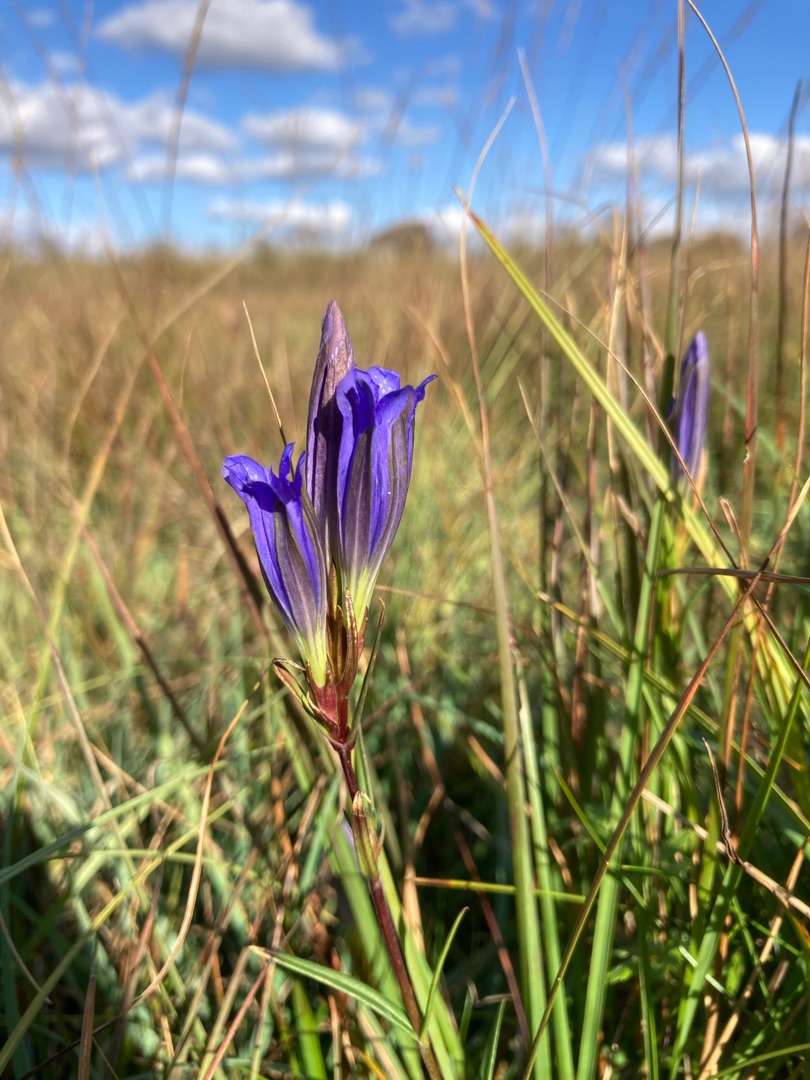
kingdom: Plantae
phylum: Tracheophyta
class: Magnoliopsida
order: Gentianales
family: Gentianaceae
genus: Gentiana
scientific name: Gentiana pneumonanthe
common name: Klokke-ensian
